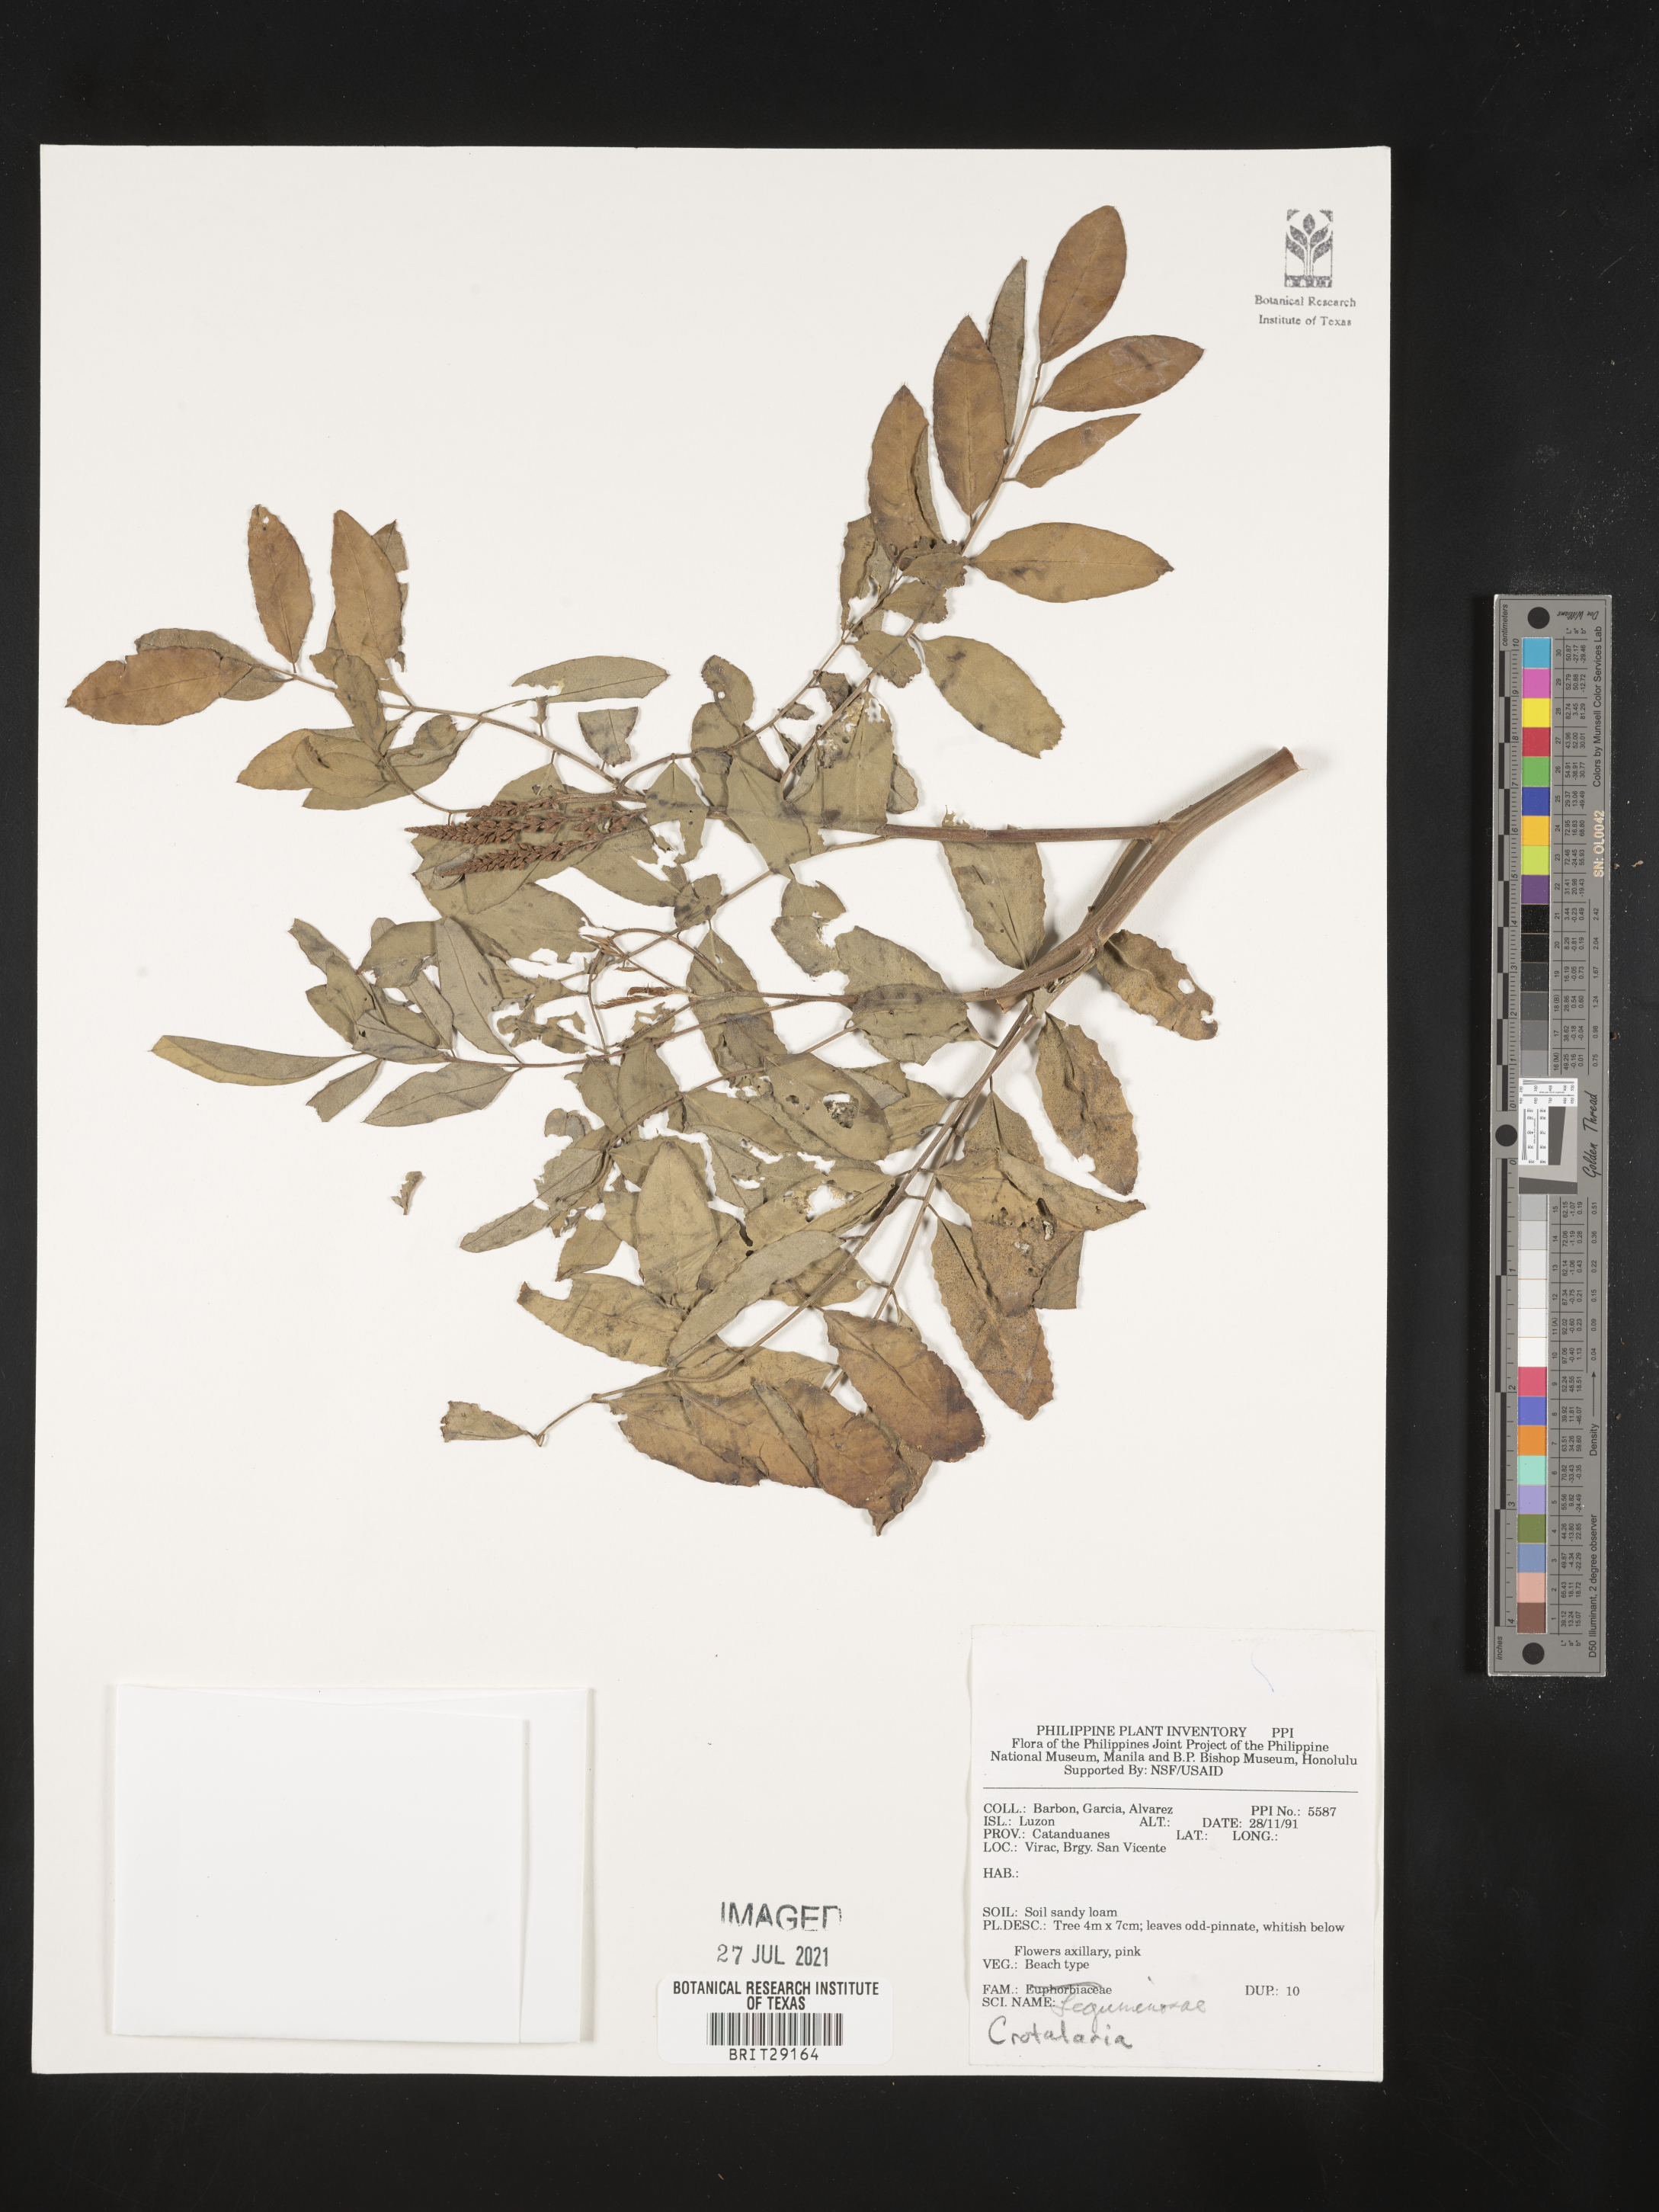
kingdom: Plantae
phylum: Tracheophyta
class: Magnoliopsida
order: Fabales
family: Fabaceae
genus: Crotalaria
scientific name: Crotalaria
